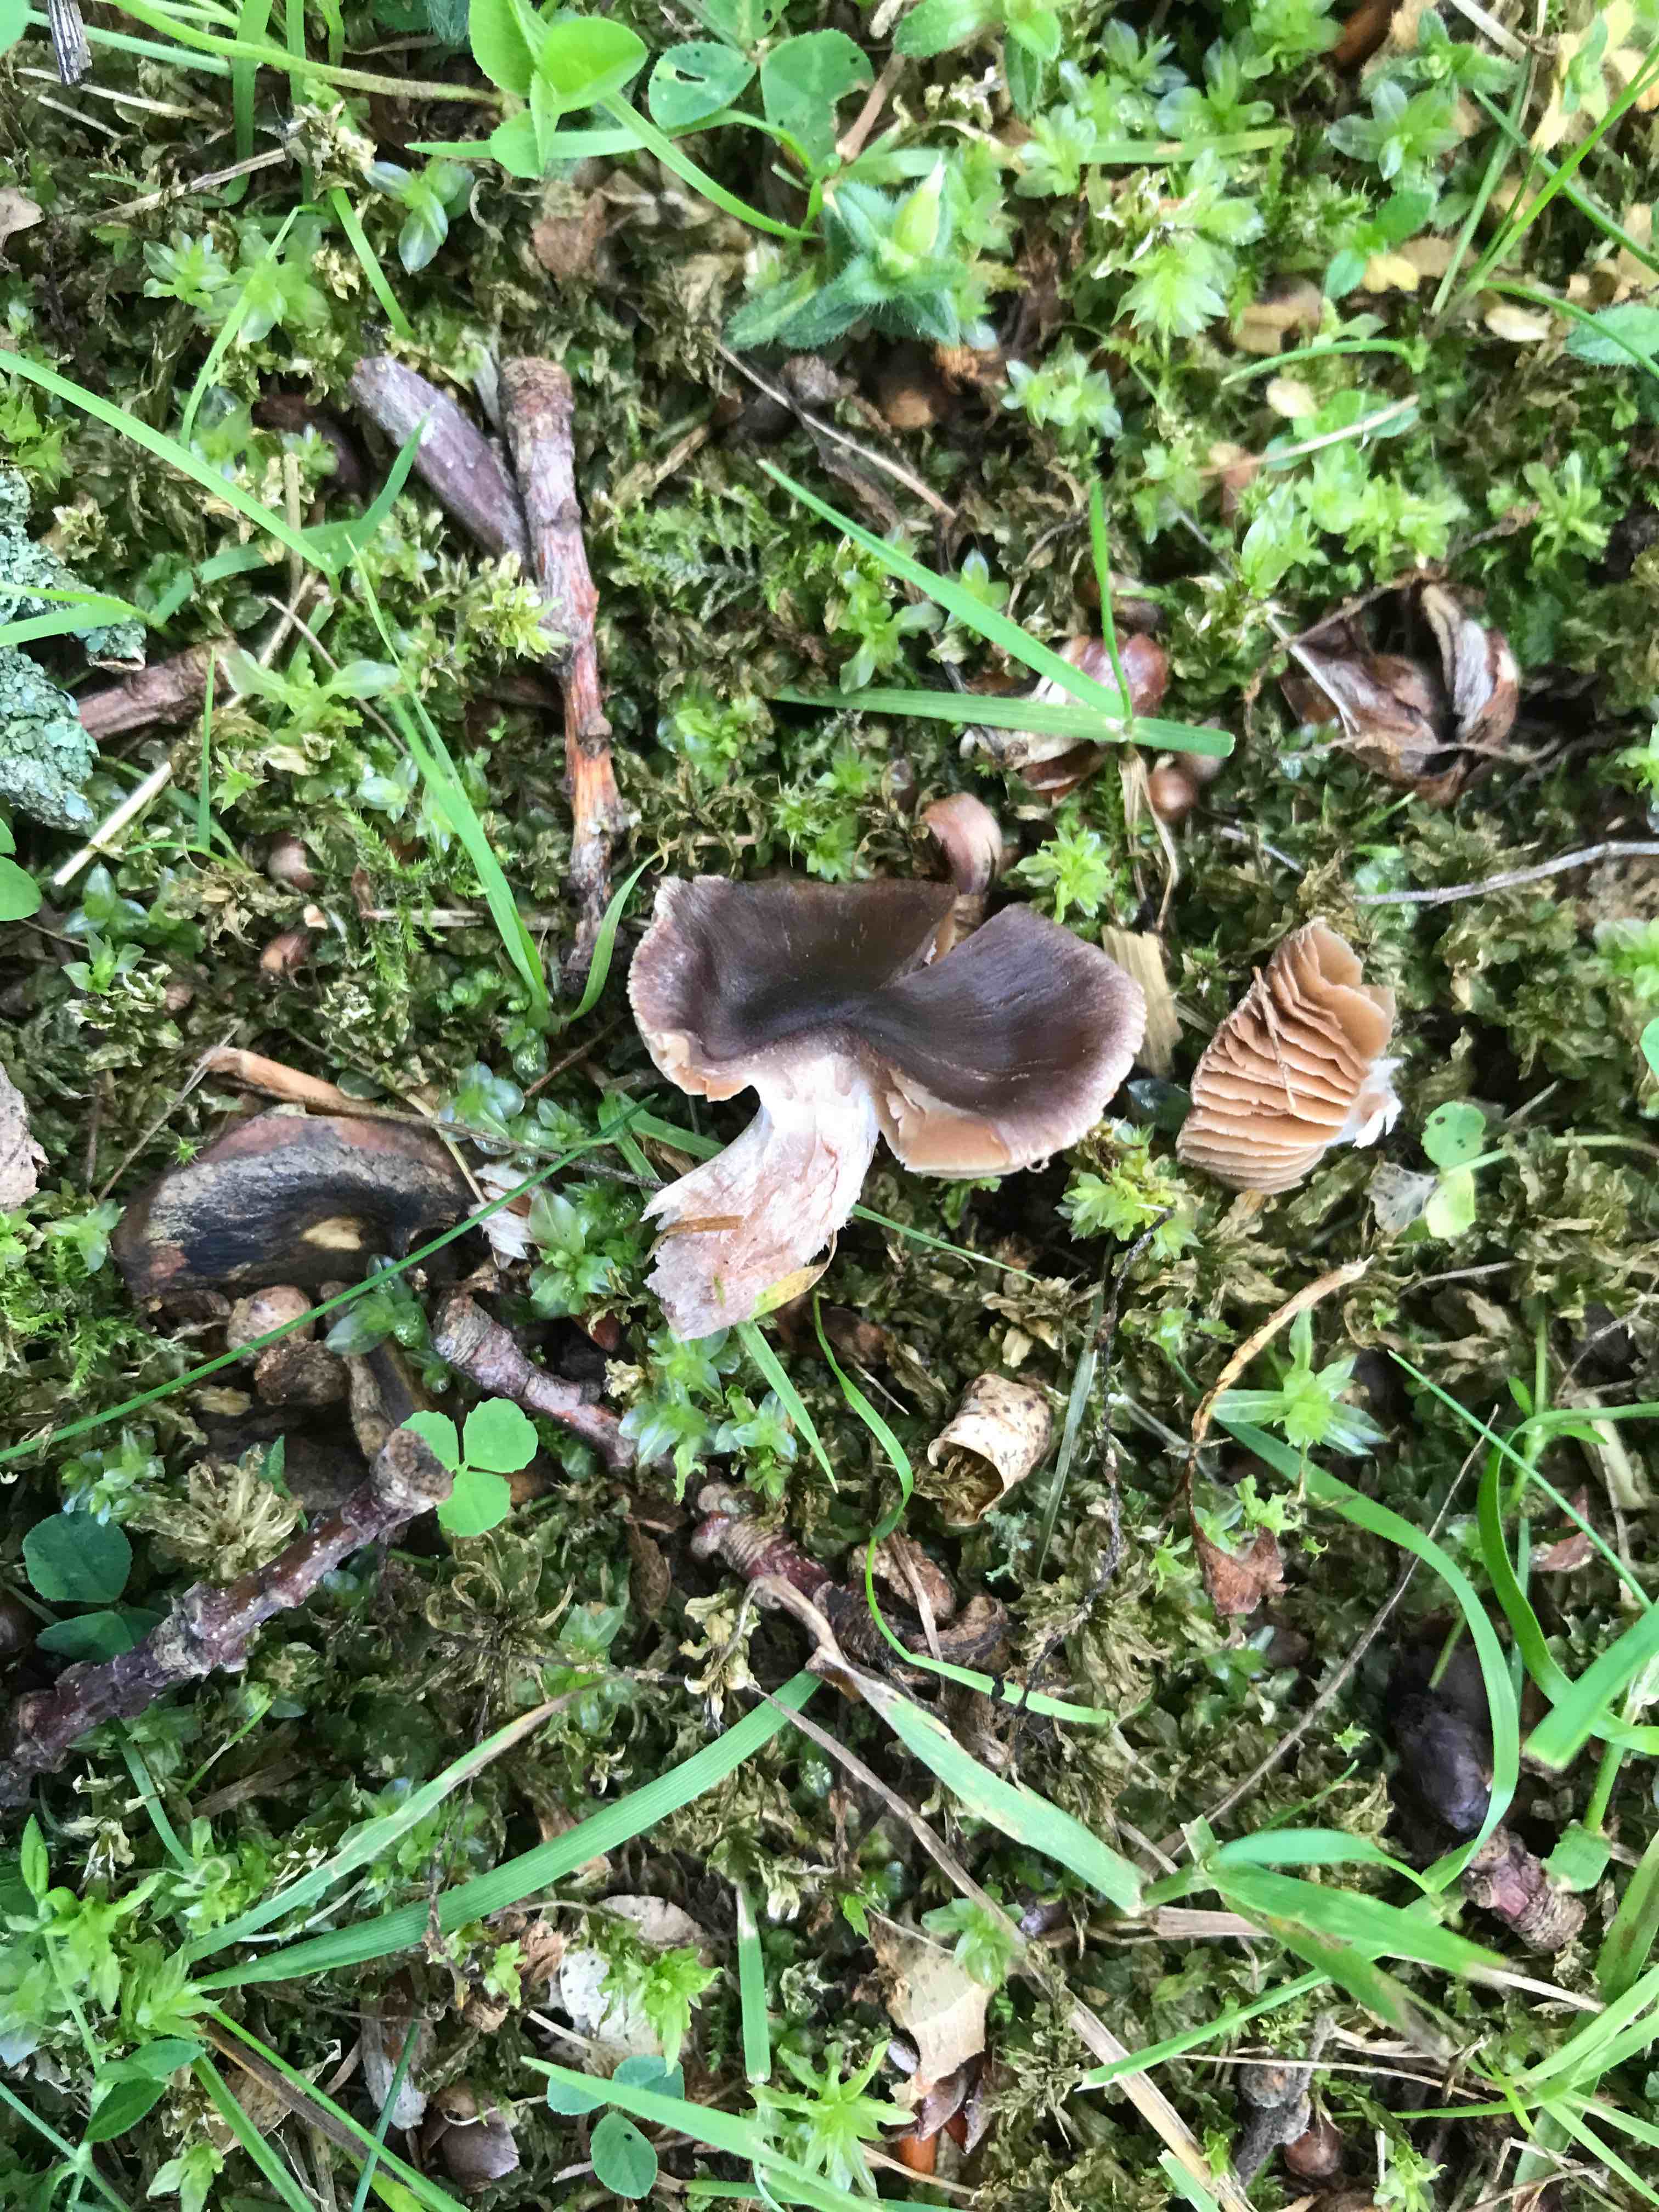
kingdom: Fungi
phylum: Basidiomycota
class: Agaricomycetes
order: Agaricales
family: Cortinariaceae
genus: Cortinarius
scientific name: Cortinarius
